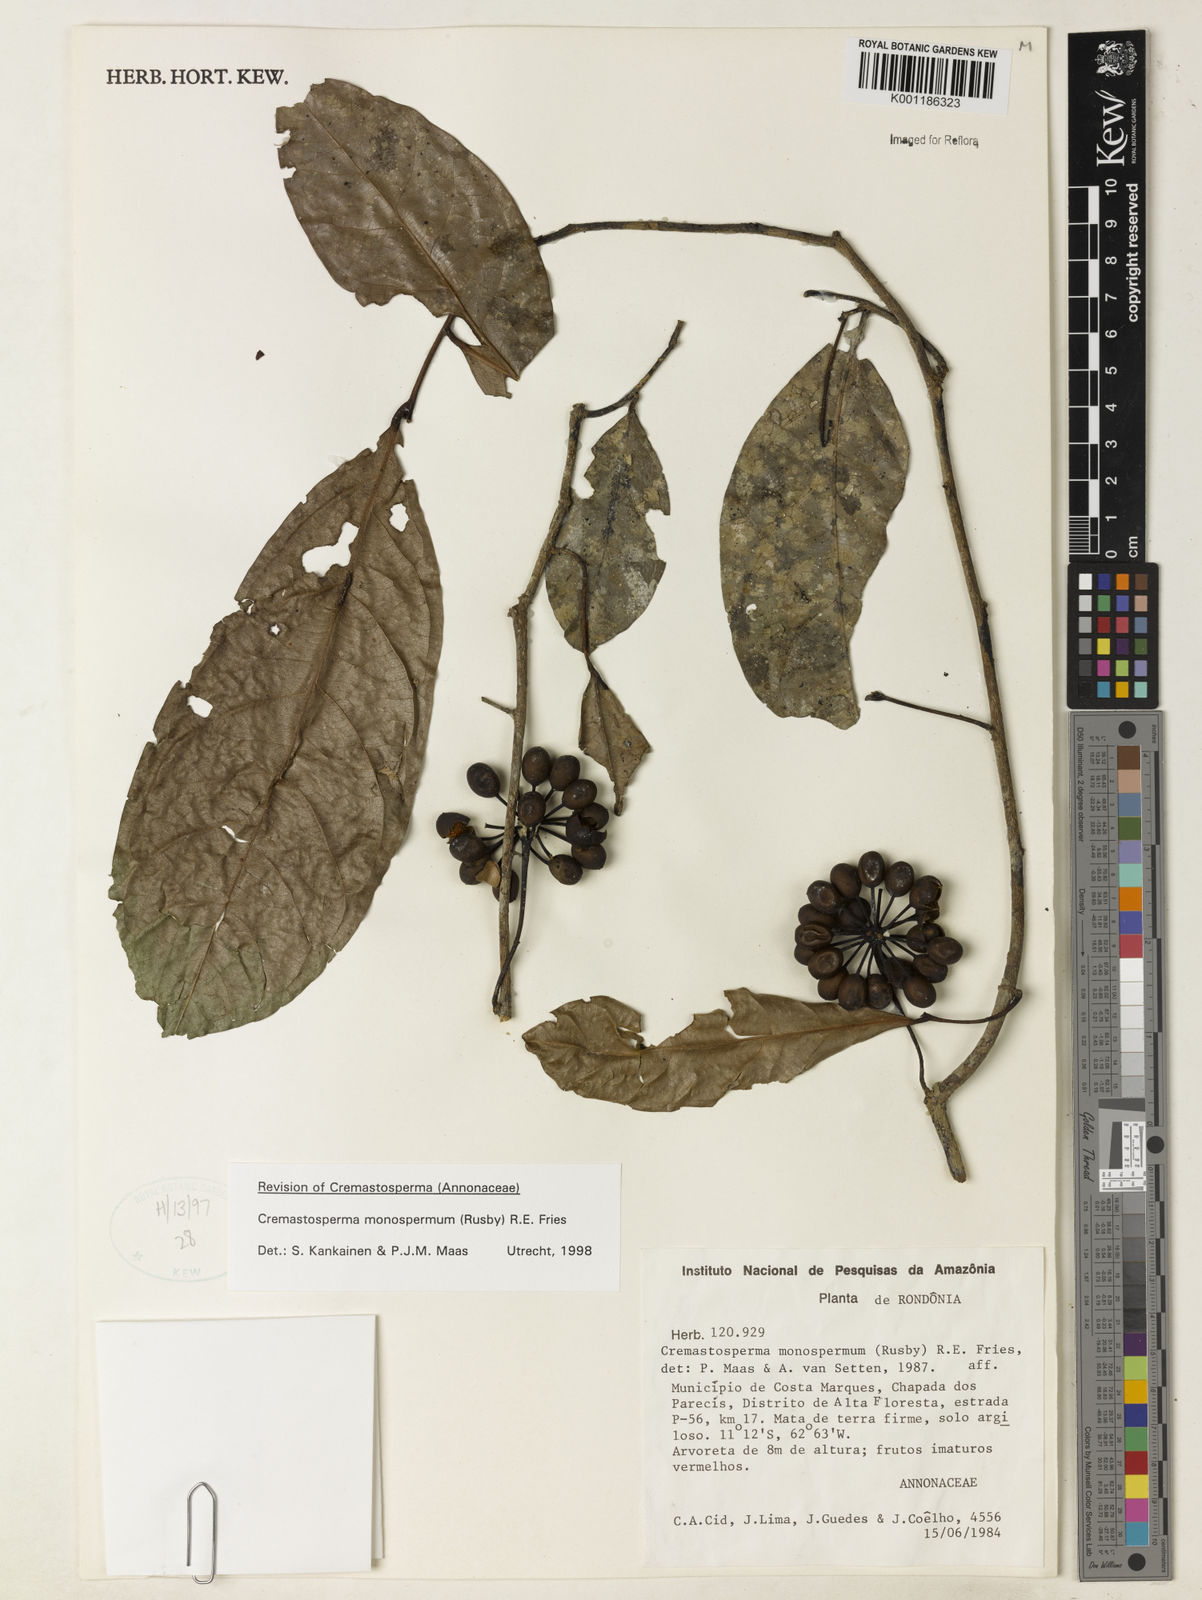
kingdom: Plantae
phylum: Tracheophyta
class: Magnoliopsida
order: Magnoliales
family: Annonaceae
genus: Cremastosperma
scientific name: Cremastosperma monospermum
